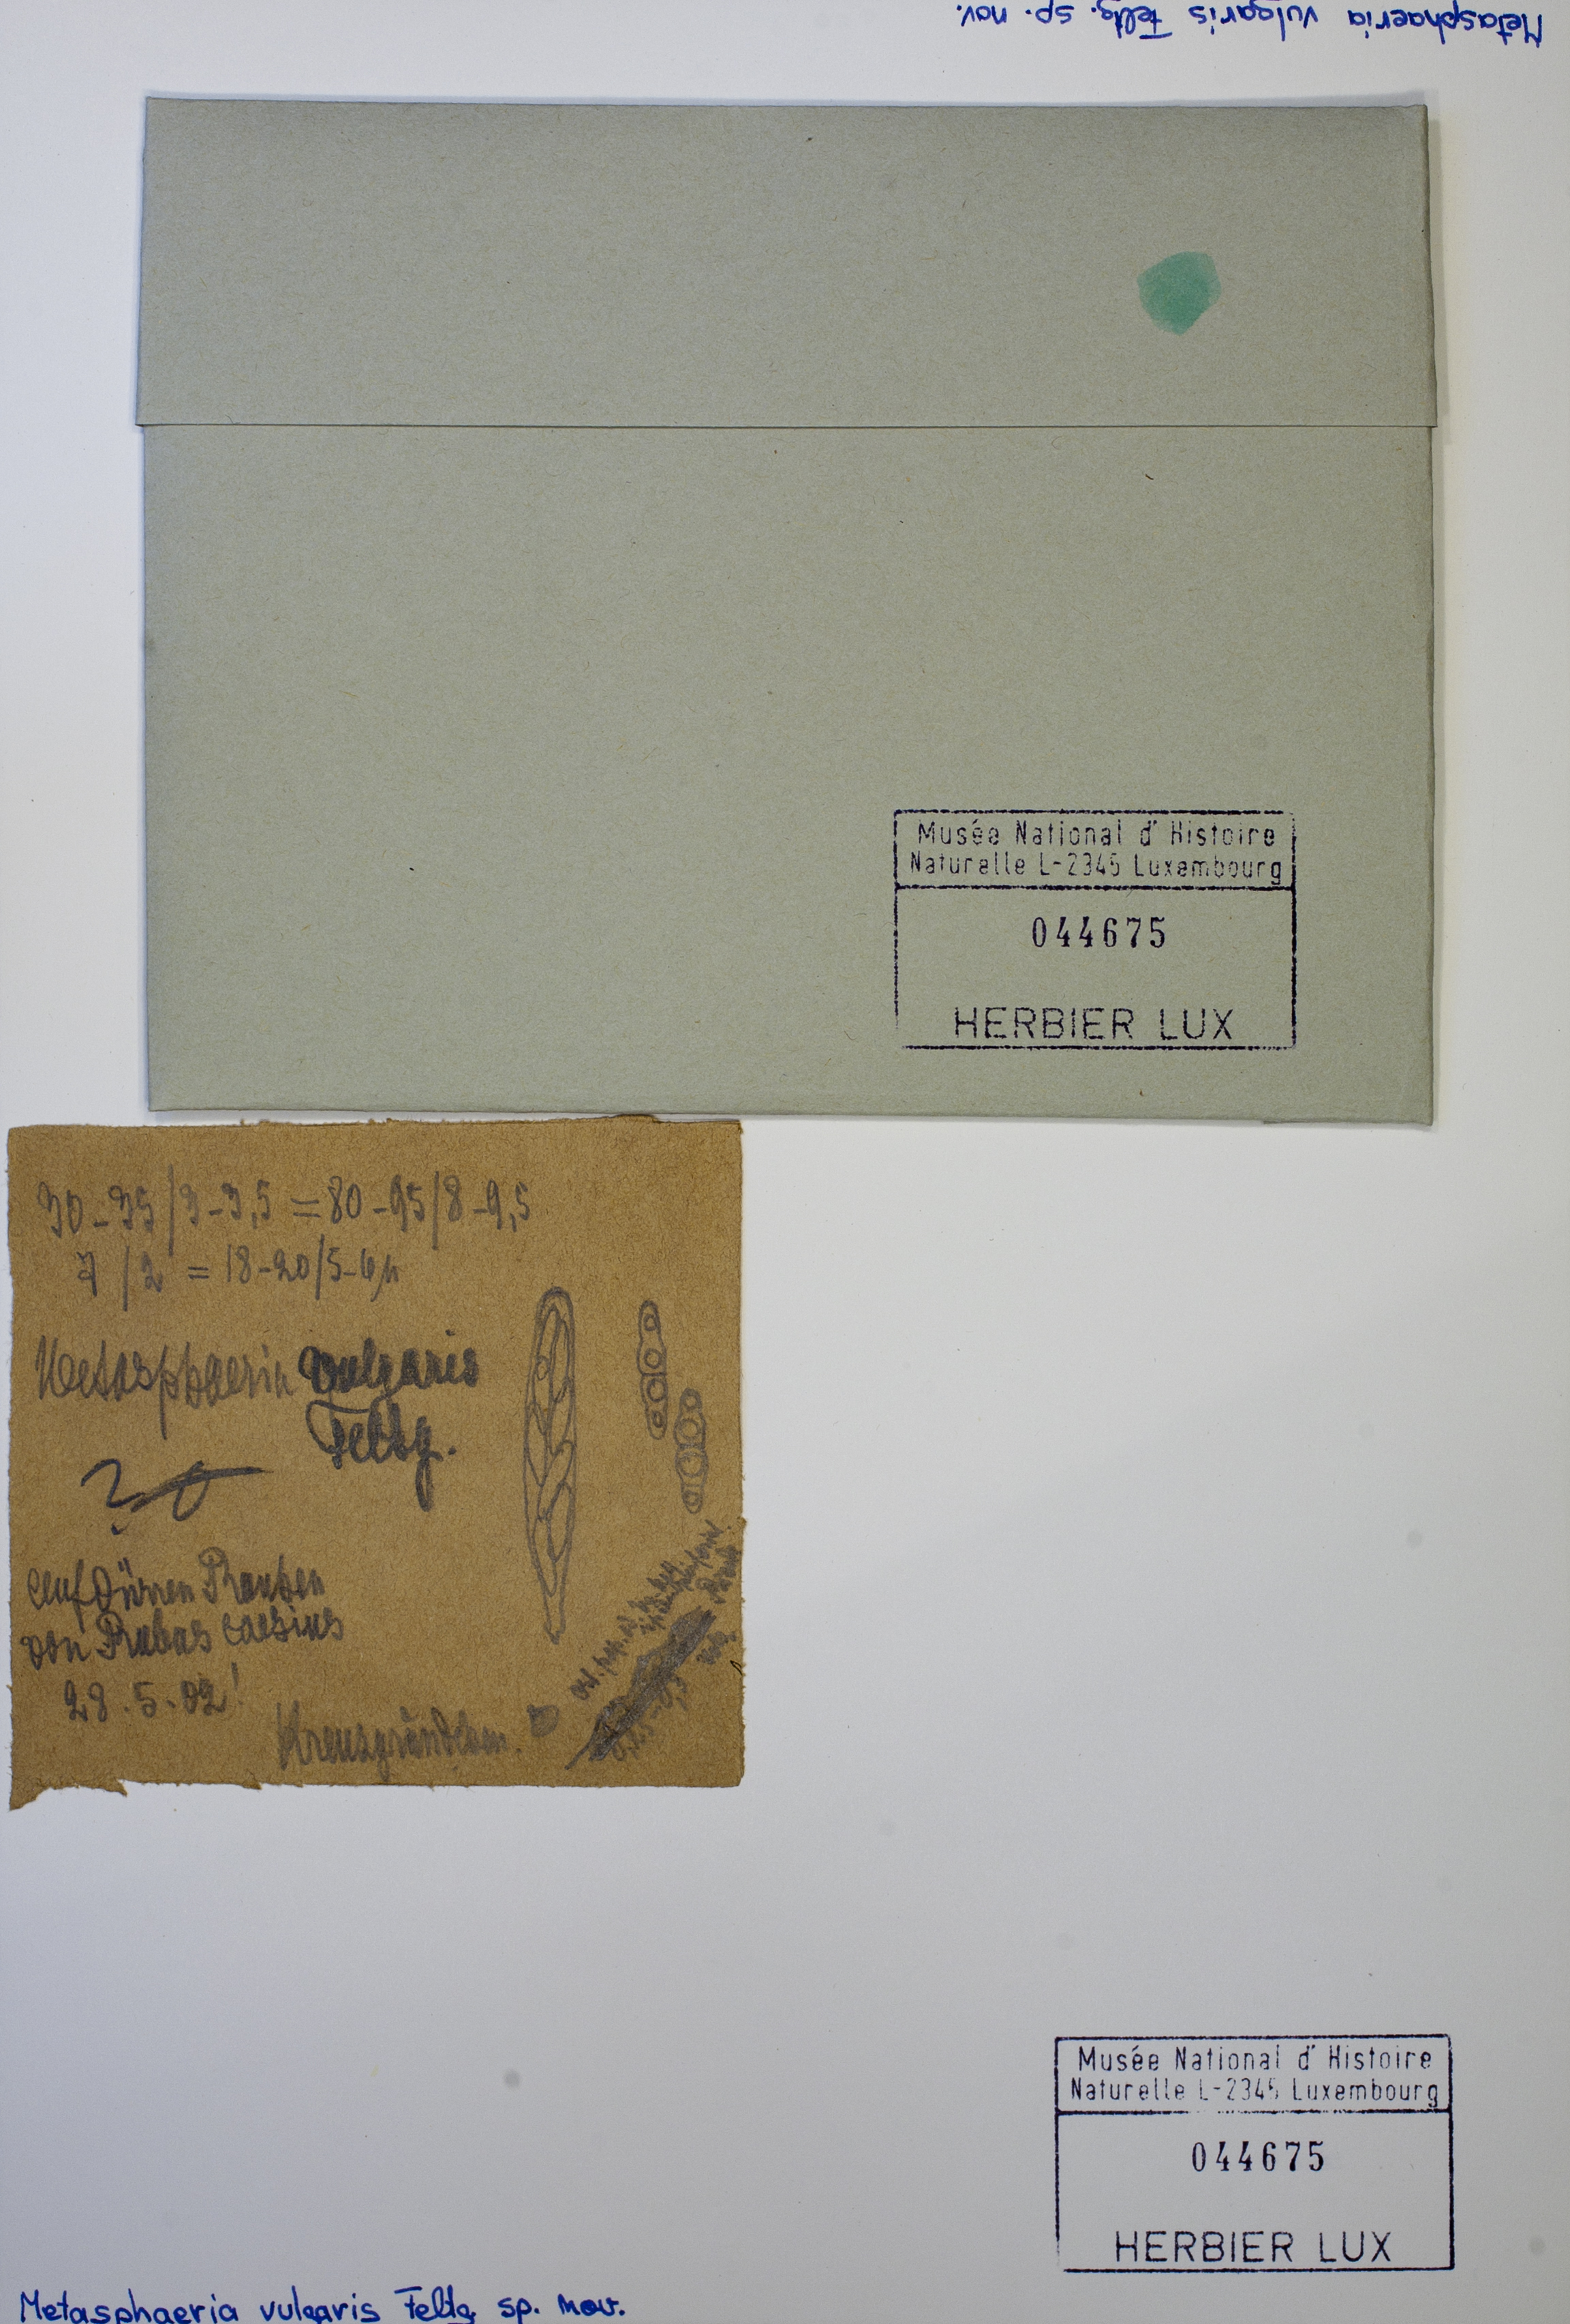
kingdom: Fungi
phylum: Ascomycota
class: Dothideomycetes
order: Dothideales
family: Saccotheciaceae
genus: Metasphaeria
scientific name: Metasphaeria vulgaris
